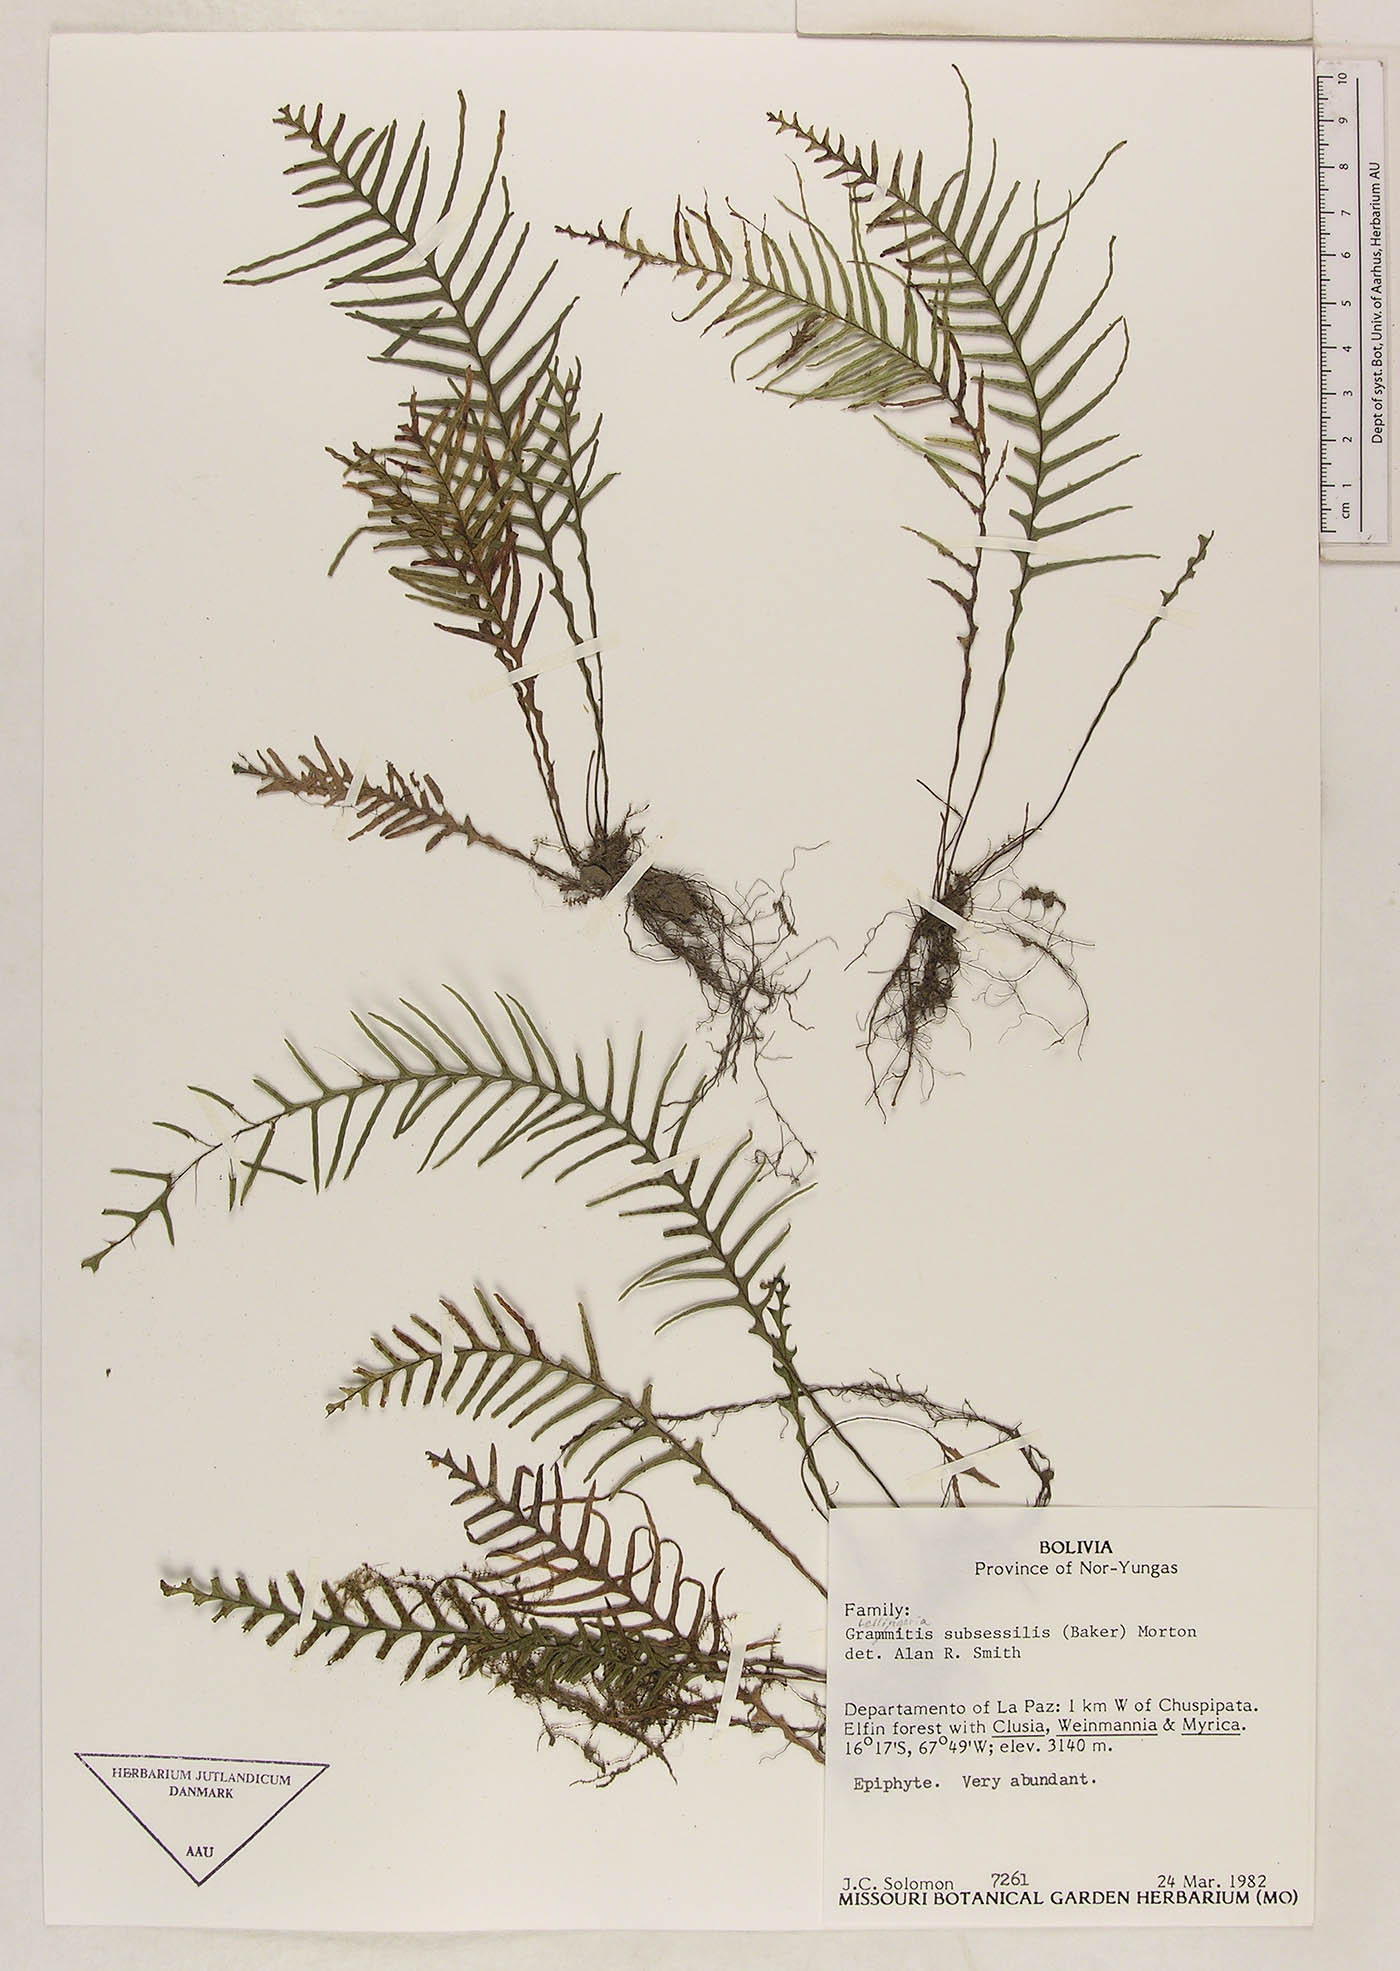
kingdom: Plantae
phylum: Tracheophyta
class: Polypodiopsida
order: Polypodiales
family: Polypodiaceae
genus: Lellingeria
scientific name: Lellingeria flagellipinnata
